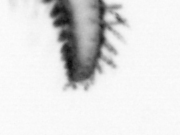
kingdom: Animalia
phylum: Annelida
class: Polychaeta
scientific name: Polychaeta
